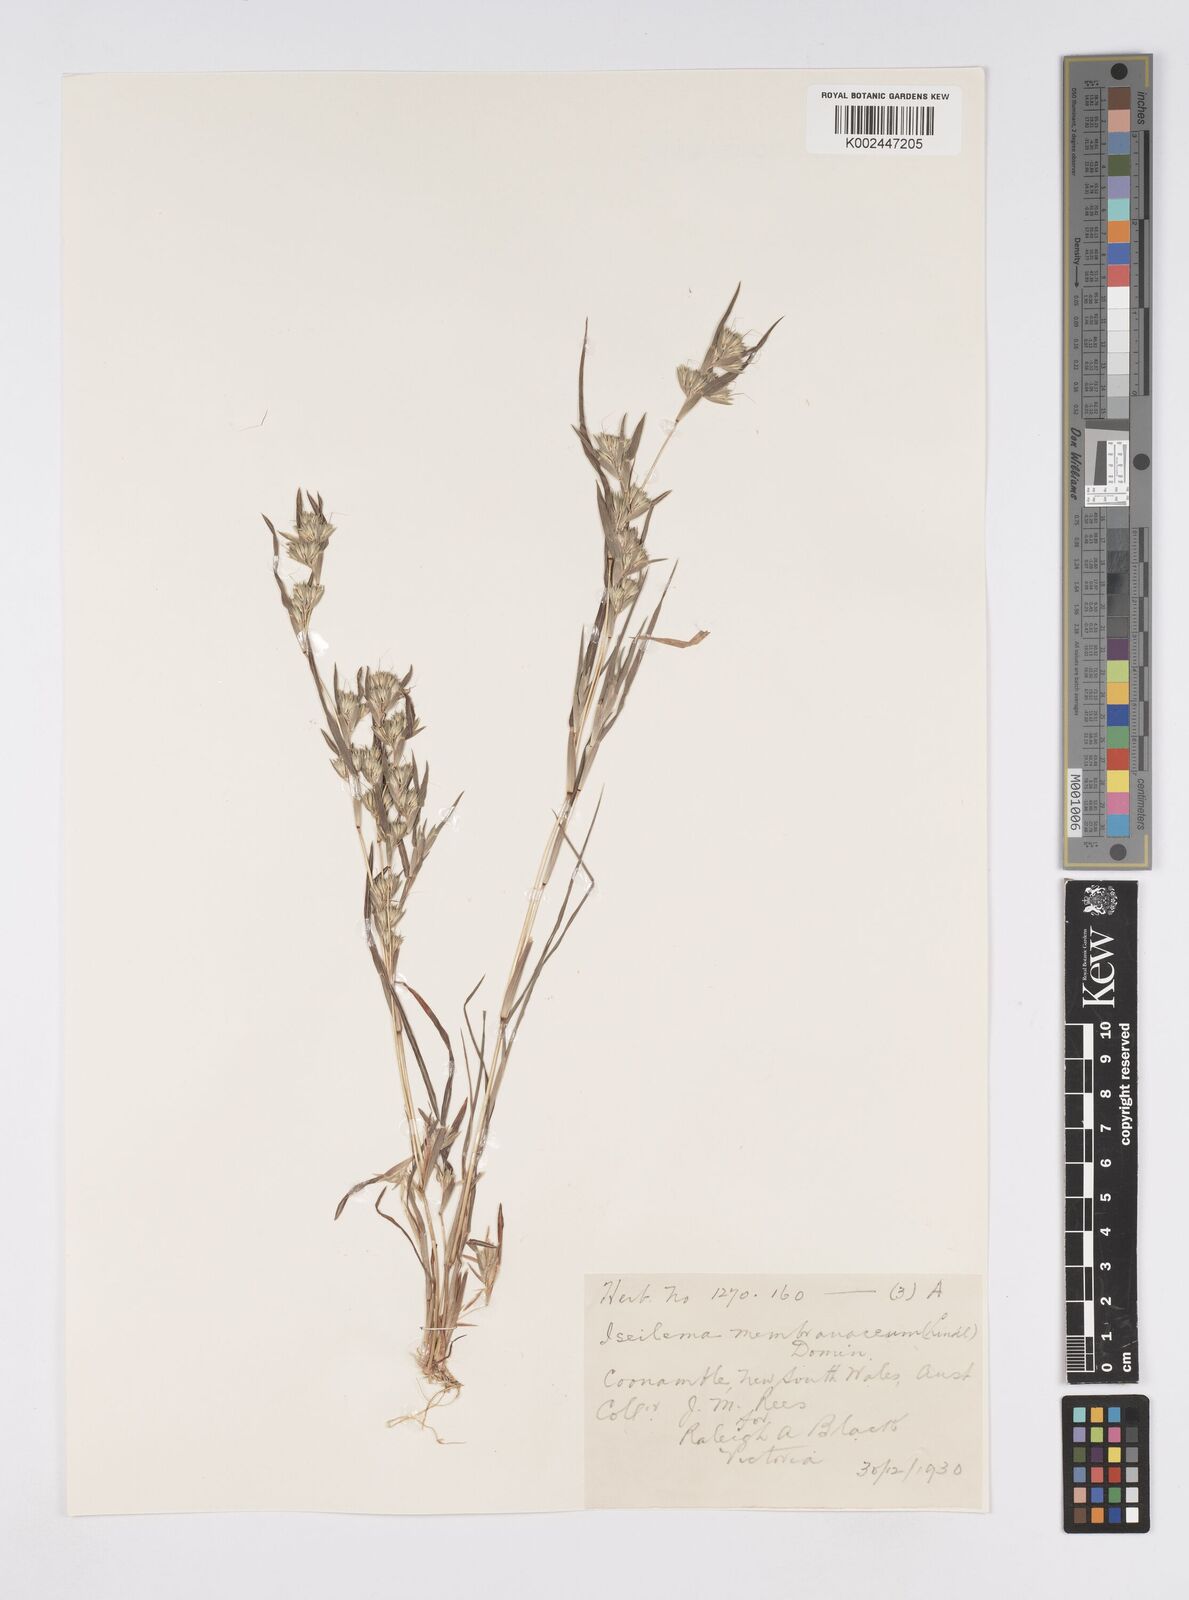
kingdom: Plantae
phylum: Tracheophyta
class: Liliopsida
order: Poales
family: Poaceae
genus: Iseilema
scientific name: Iseilema membranaceum
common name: Small flinders grass
